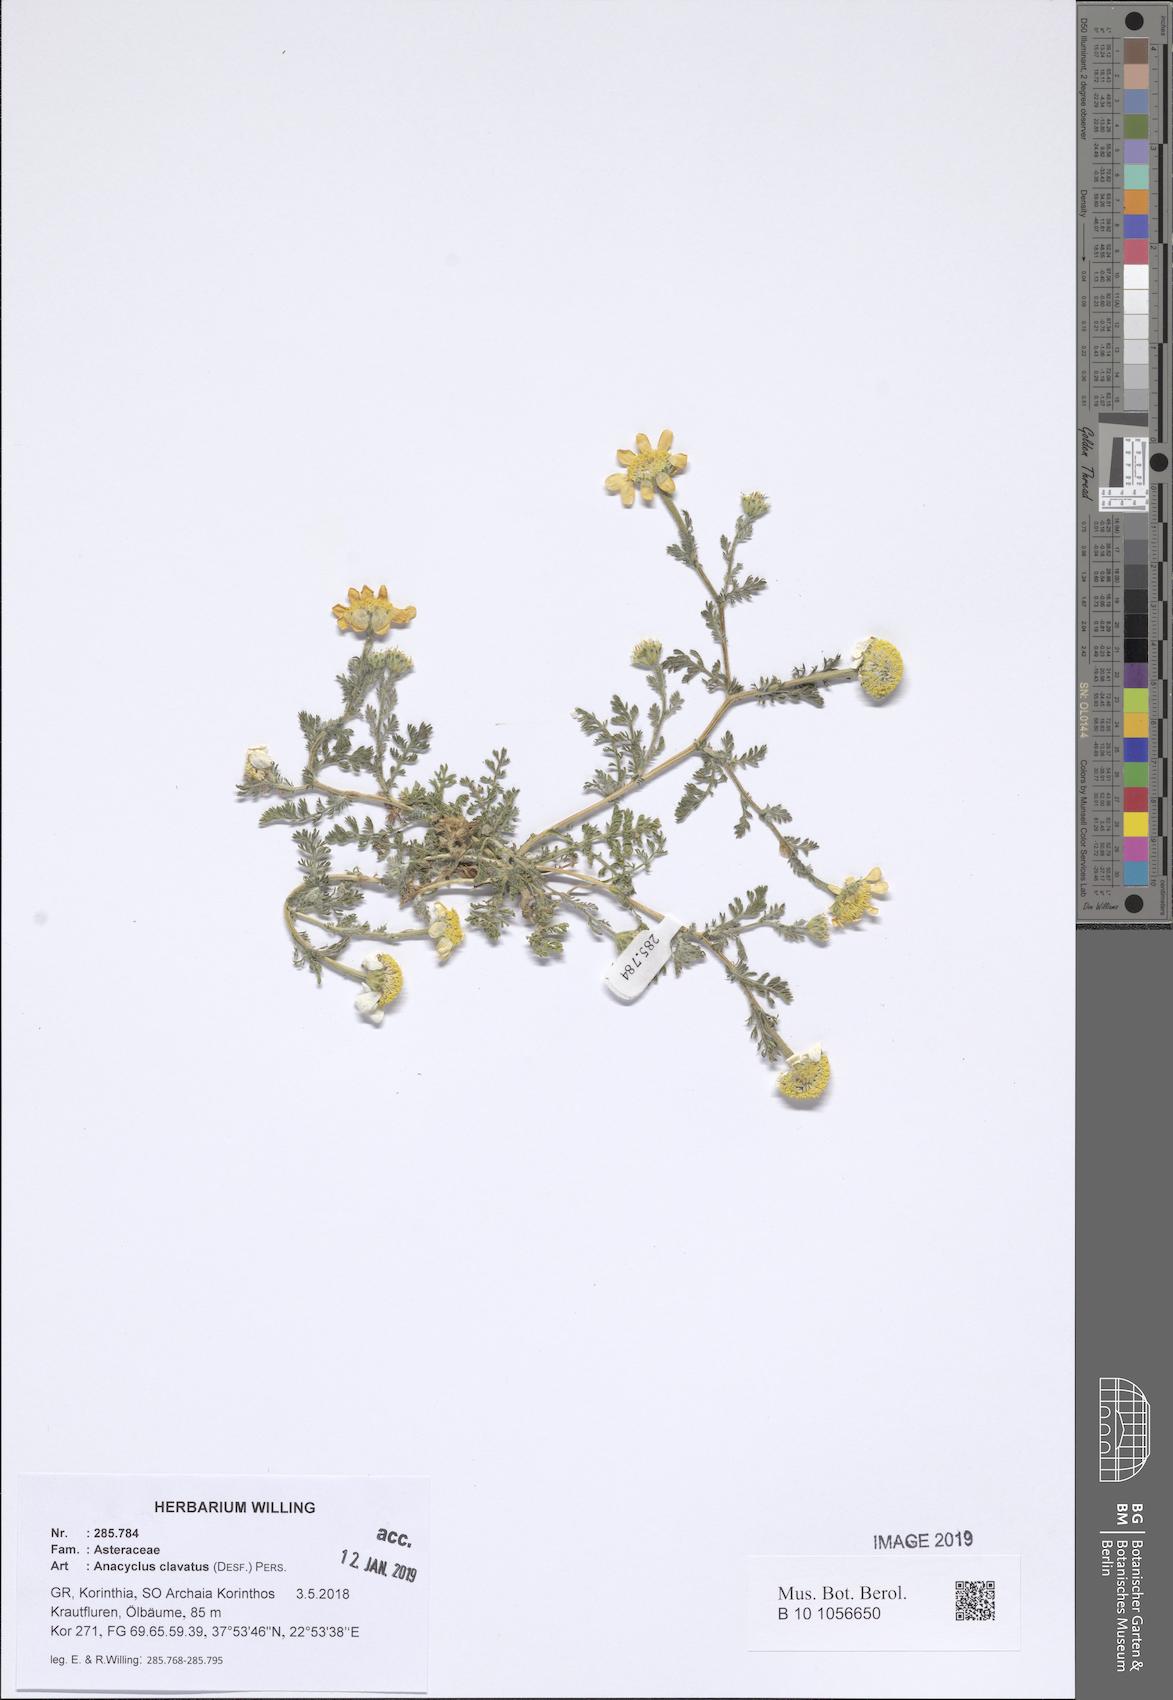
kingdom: Plantae
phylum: Tracheophyta
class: Magnoliopsida
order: Asterales
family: Asteraceae
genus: Anacyclus
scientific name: Anacyclus clavatus
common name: Whitebuttons
